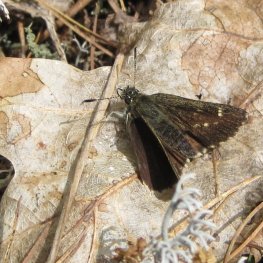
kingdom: Animalia
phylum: Arthropoda
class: Insecta
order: Lepidoptera
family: Hesperiidae
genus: Mastor
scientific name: Mastor hegon
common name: Pepper and Salt Skipper
